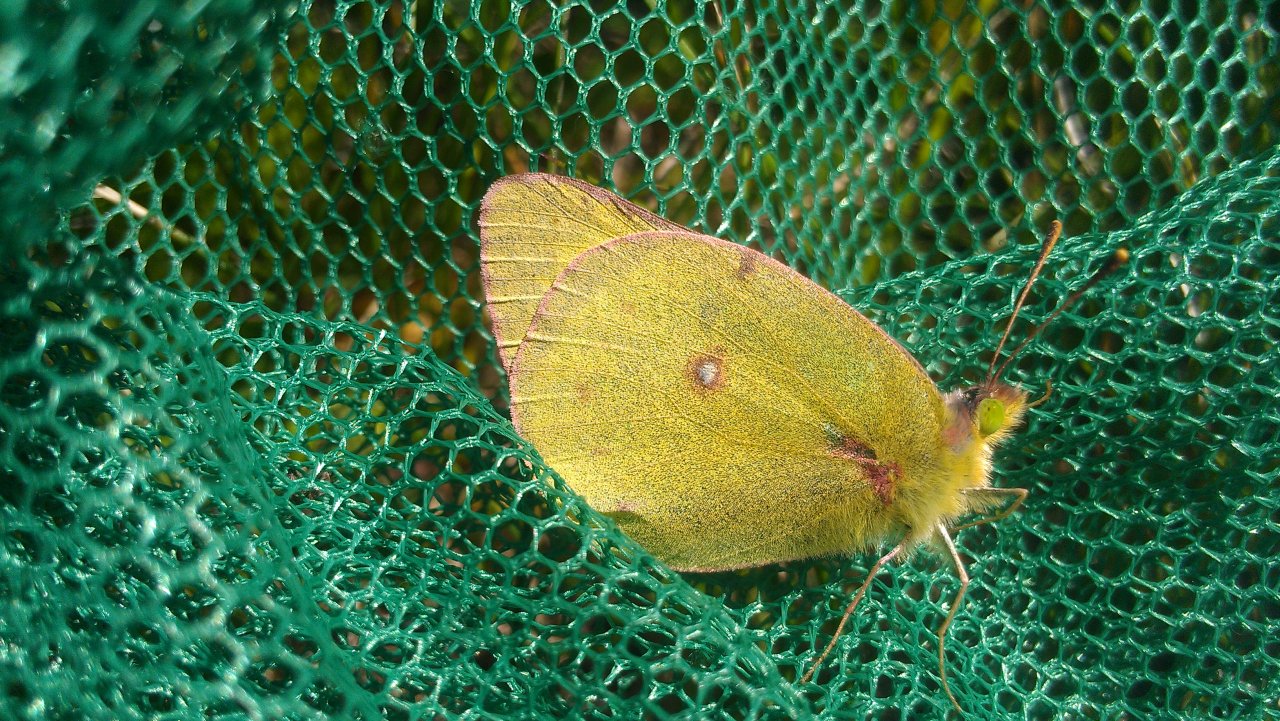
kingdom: Animalia
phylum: Arthropoda
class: Insecta
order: Lepidoptera
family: Pieridae
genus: Colias
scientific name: Colias philodice
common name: Clouded Sulphur
